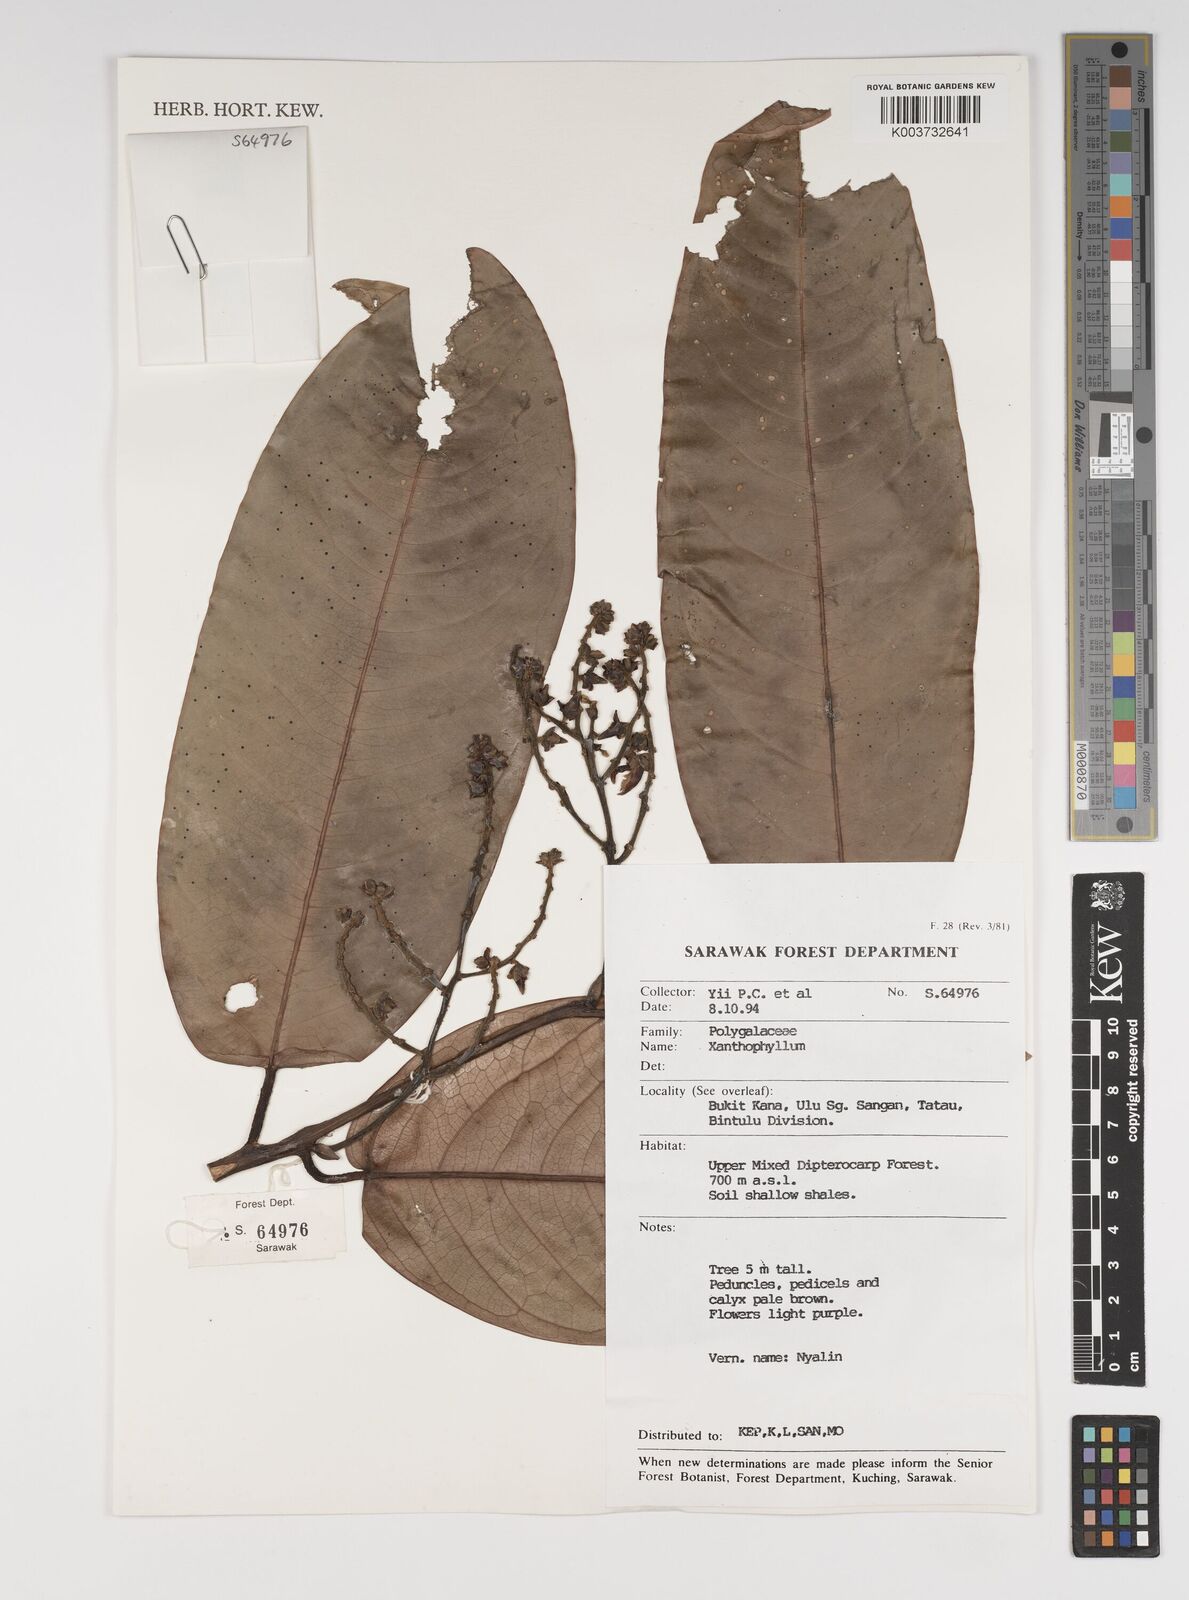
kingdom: Plantae
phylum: Tracheophyta
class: Magnoliopsida
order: Fabales
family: Polygalaceae
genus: Xanthophyllum
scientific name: Xanthophyllum
